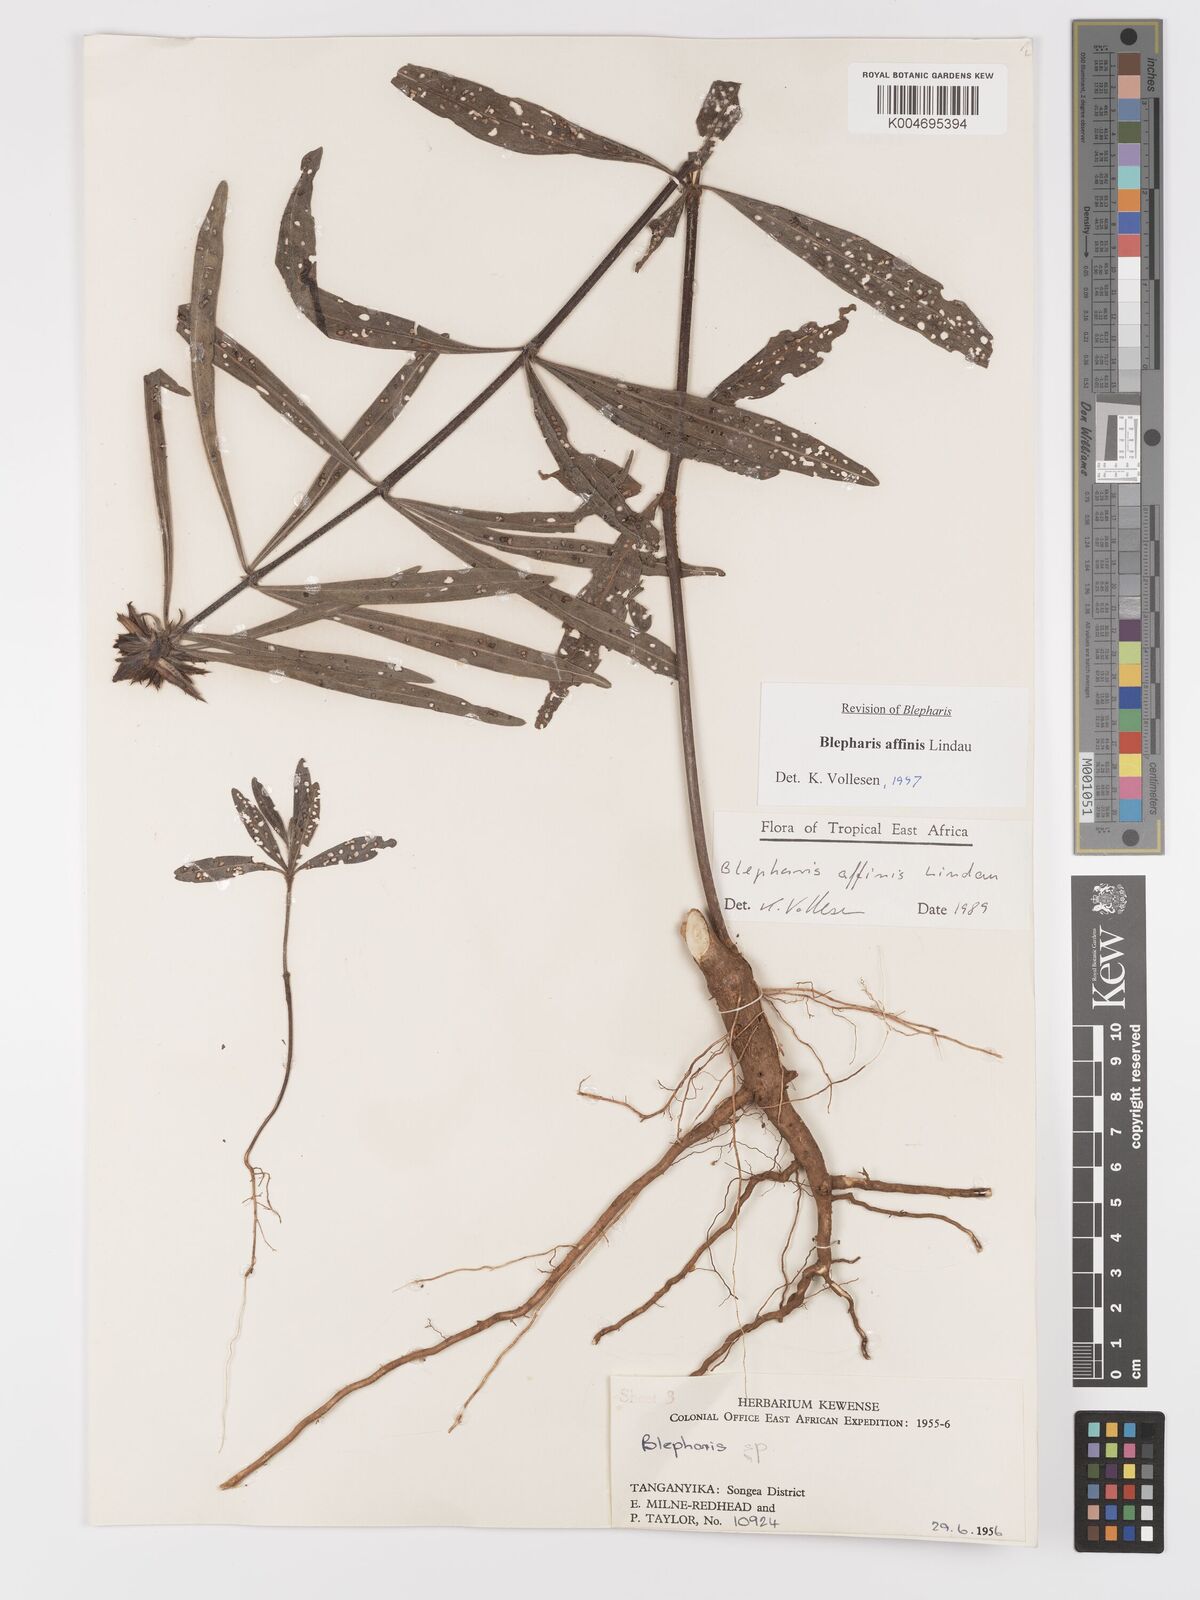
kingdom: Plantae
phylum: Tracheophyta
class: Magnoliopsida
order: Lamiales
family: Acanthaceae
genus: Blepharis
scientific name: Blepharis affinis
